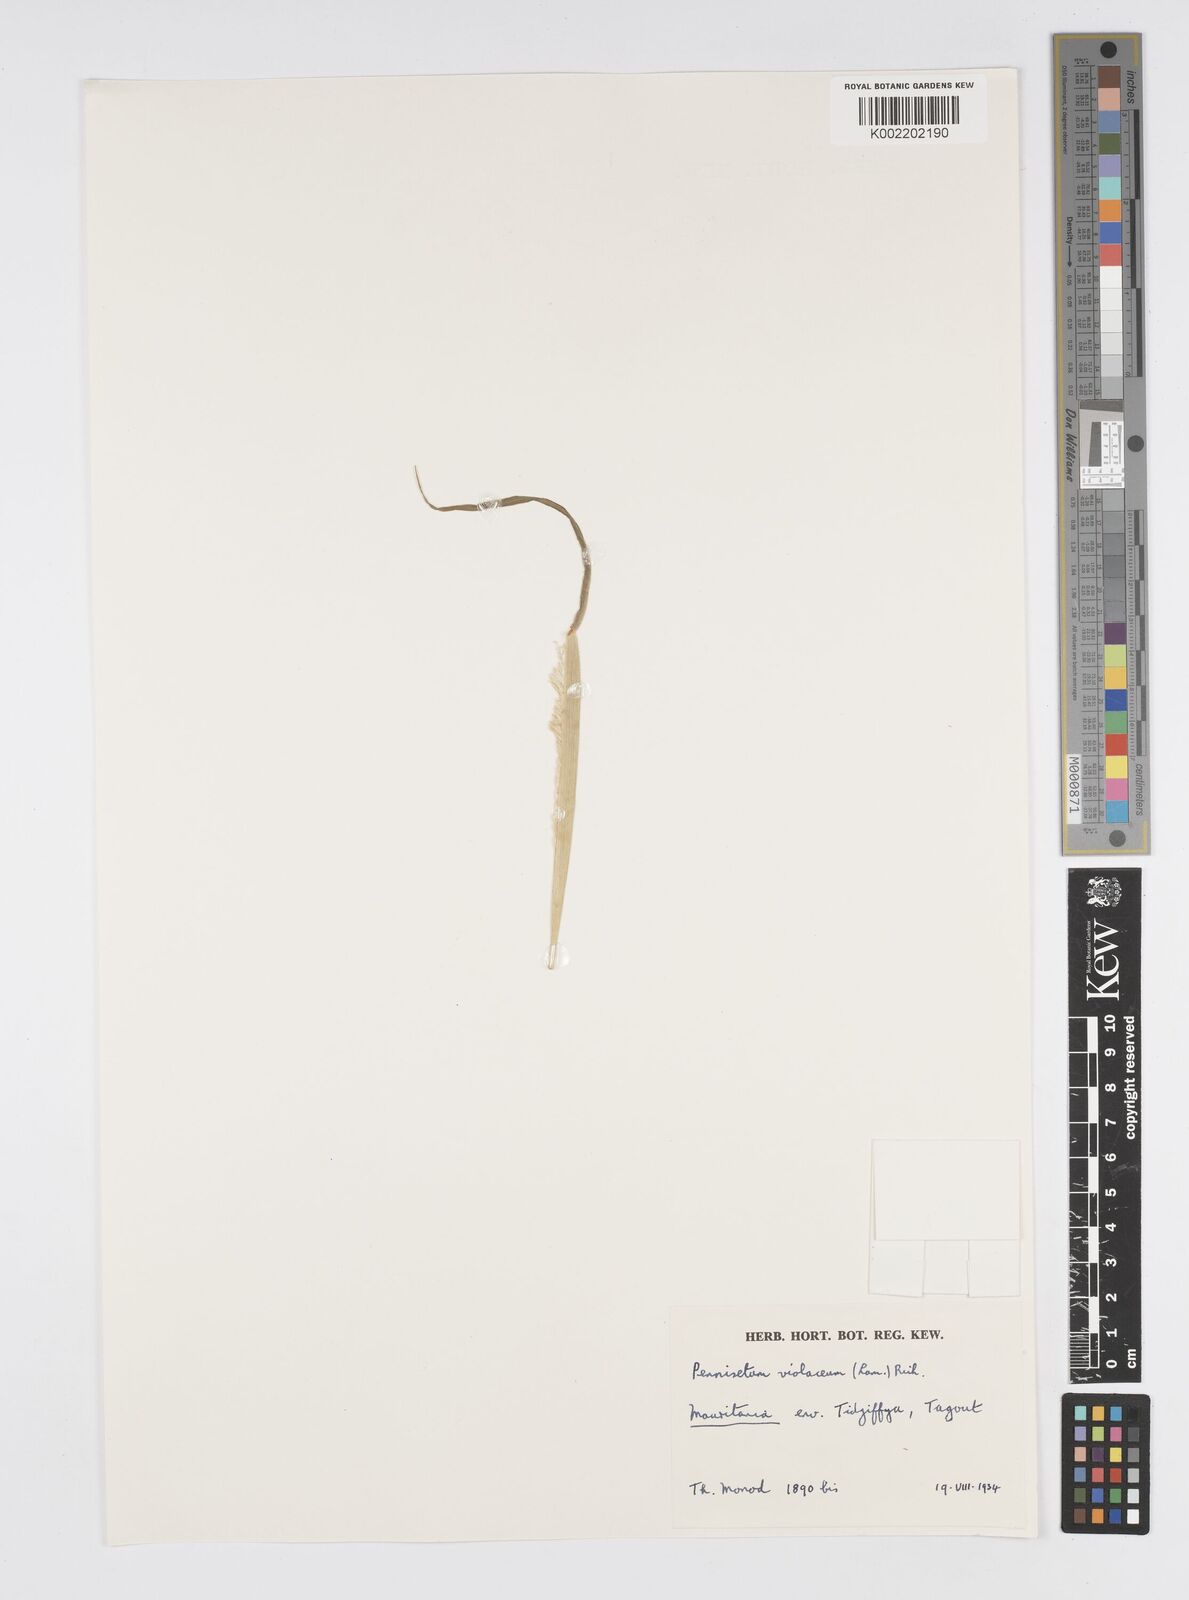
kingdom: Plantae
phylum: Tracheophyta
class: Liliopsida
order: Poales
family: Poaceae
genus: Cenchrus
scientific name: Cenchrus violaceus
